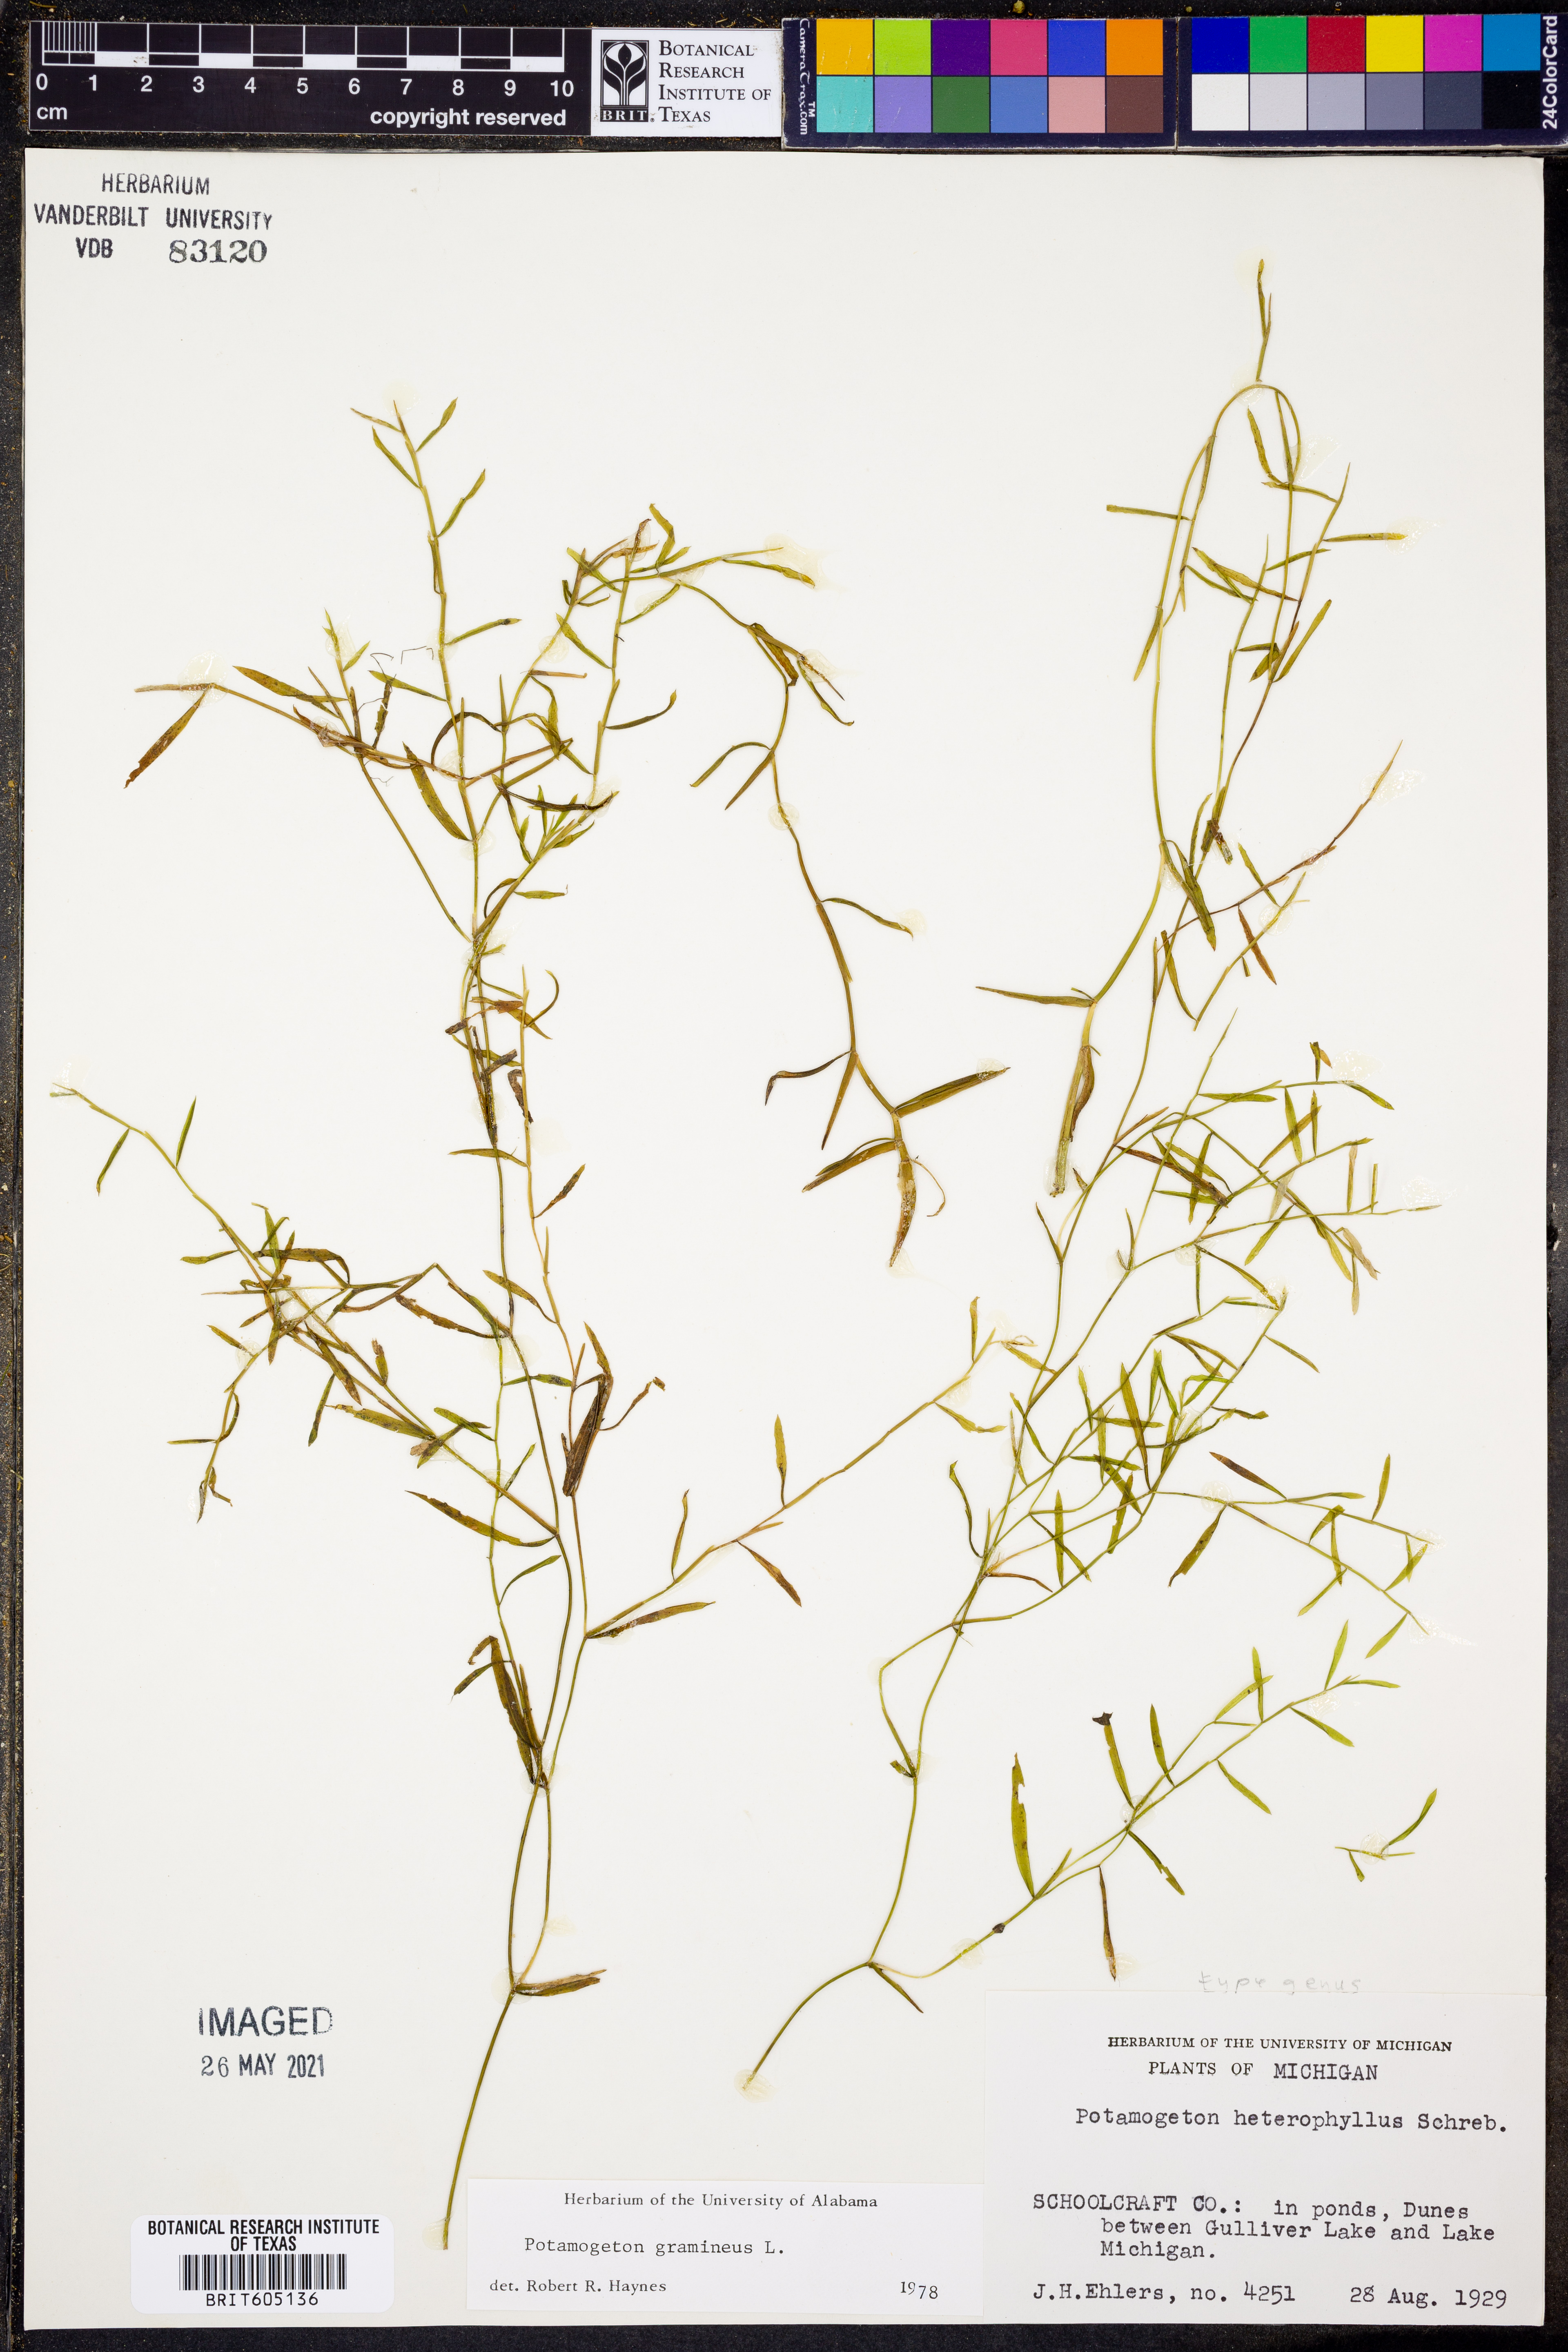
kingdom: Plantae
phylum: Tracheophyta
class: Liliopsida
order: Alismatales
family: Potamogetonaceae
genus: Potamogeton
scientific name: Potamogeton gramineus
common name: Various-leaved pondweed
